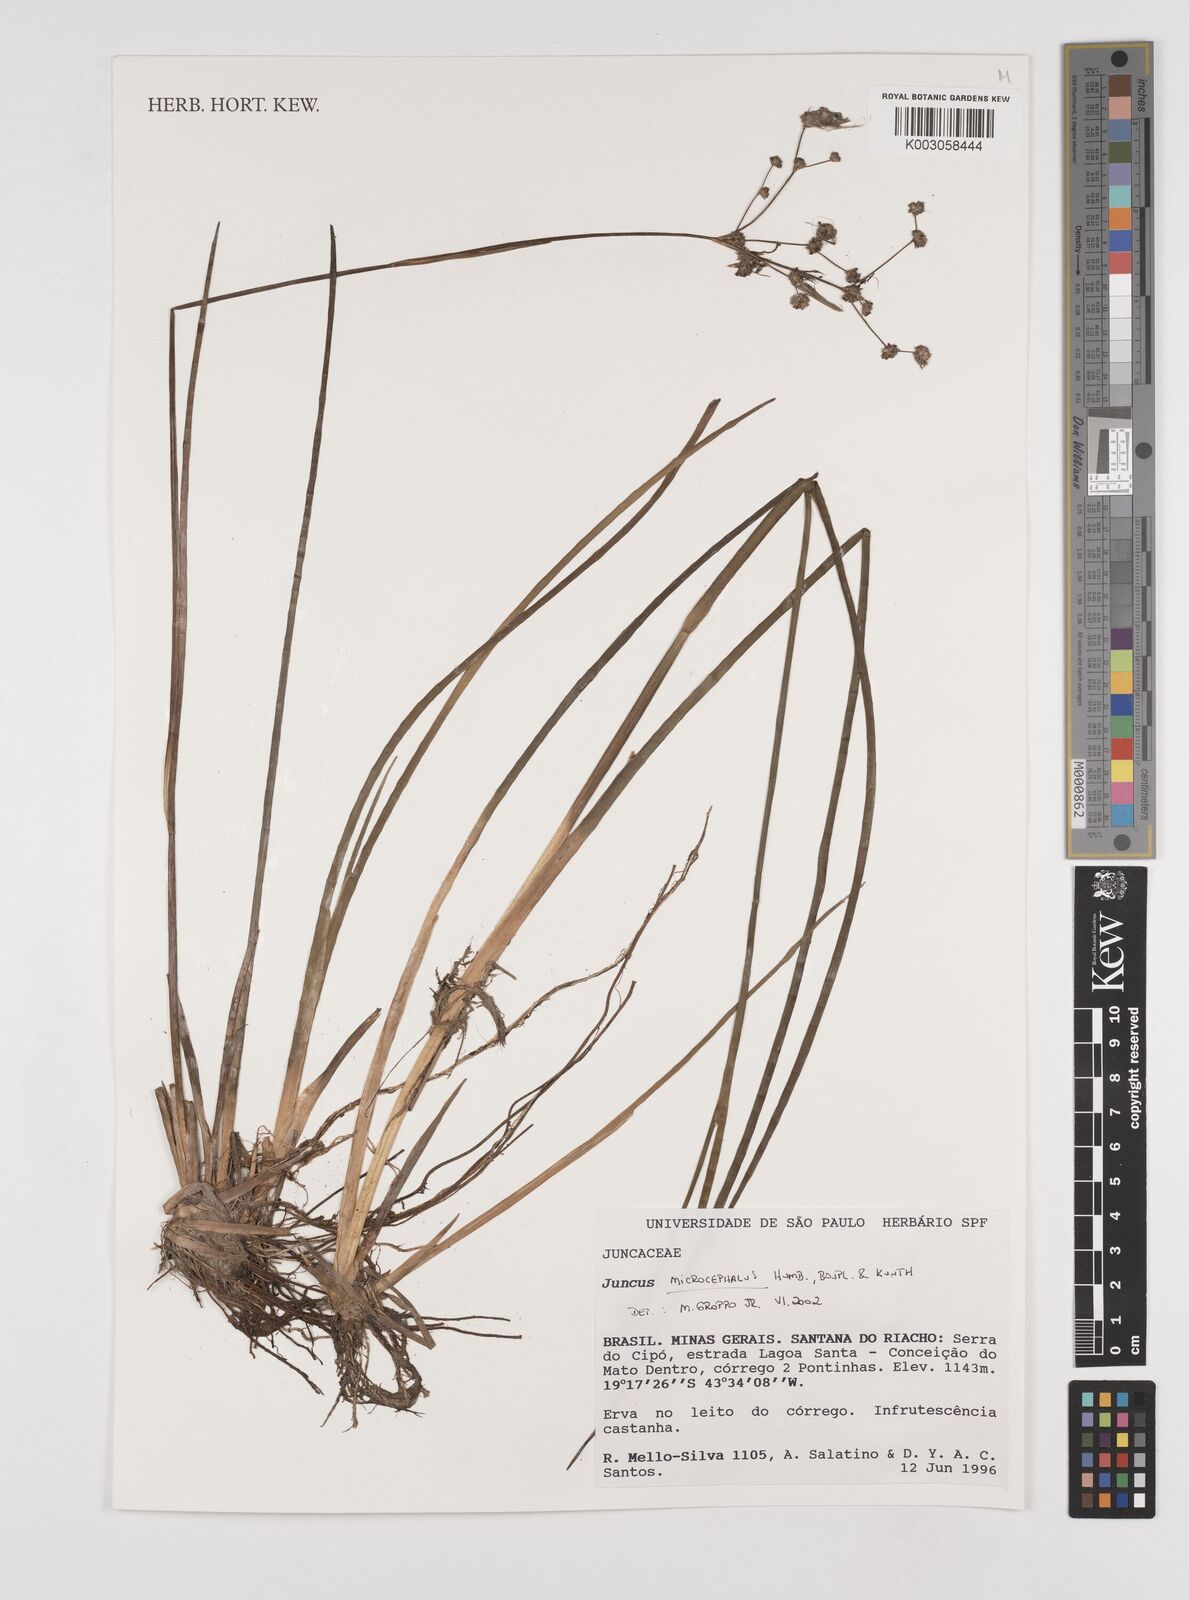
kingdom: Plantae
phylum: Tracheophyta
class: Liliopsida
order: Poales
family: Juncaceae
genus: Juncus
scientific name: Juncus microcephalus
